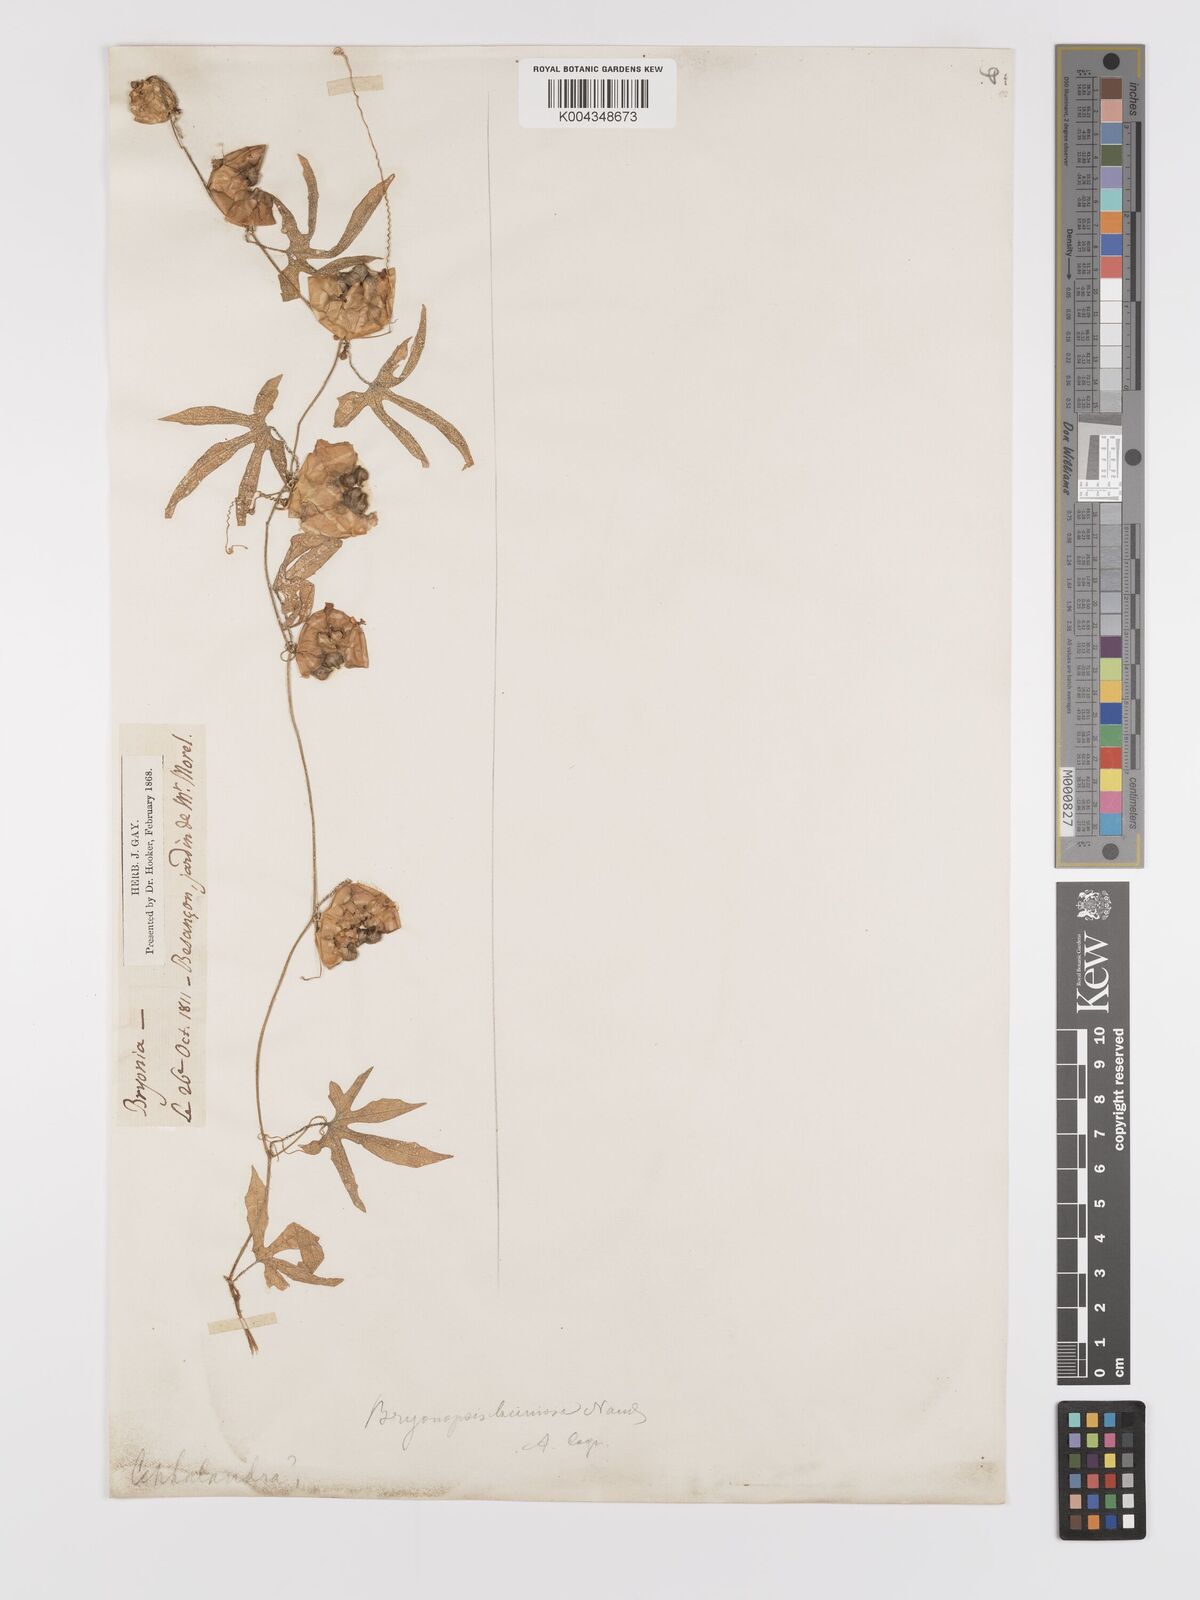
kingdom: Plantae
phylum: Tracheophyta
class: Magnoliopsida
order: Cucurbitales
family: Cucurbitaceae
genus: Diplocyclos
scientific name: Diplocyclos palmatus
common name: Striped-cucumber
